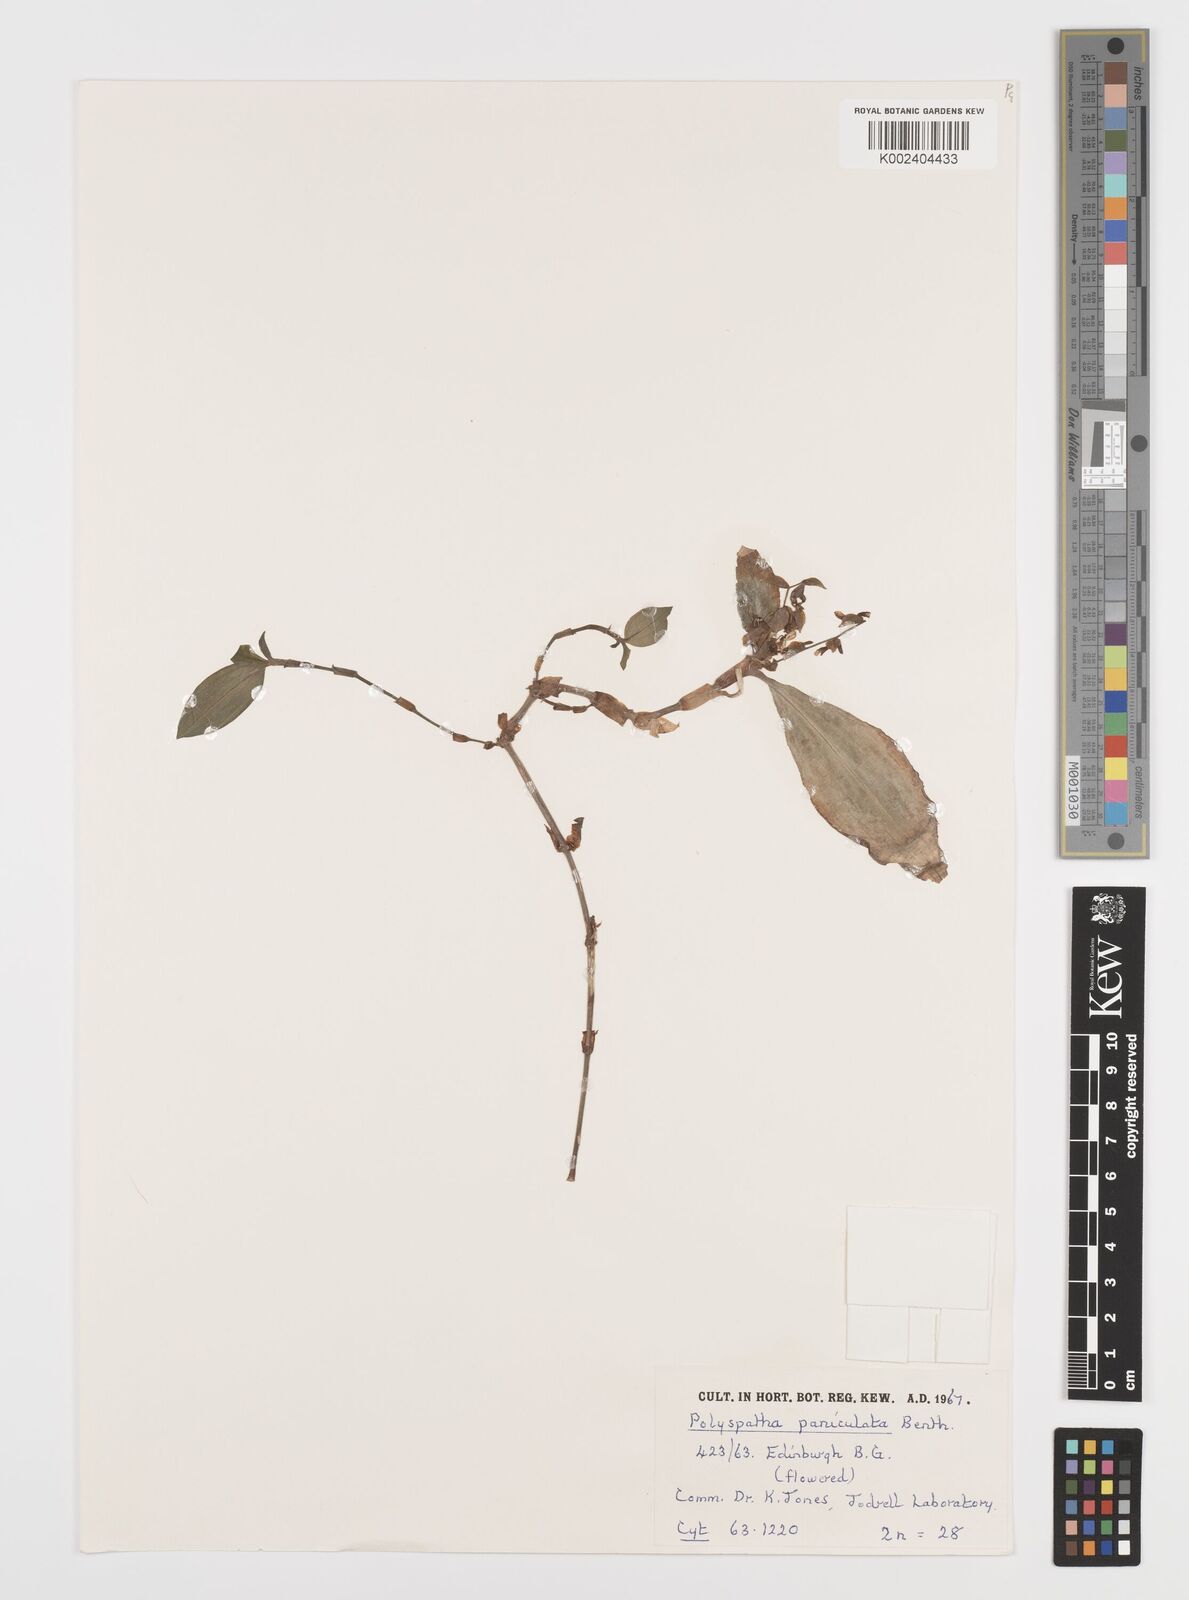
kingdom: Plantae
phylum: Tracheophyta
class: Liliopsida
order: Commelinales
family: Commelinaceae
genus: Polyspatha
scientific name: Polyspatha paniculata
